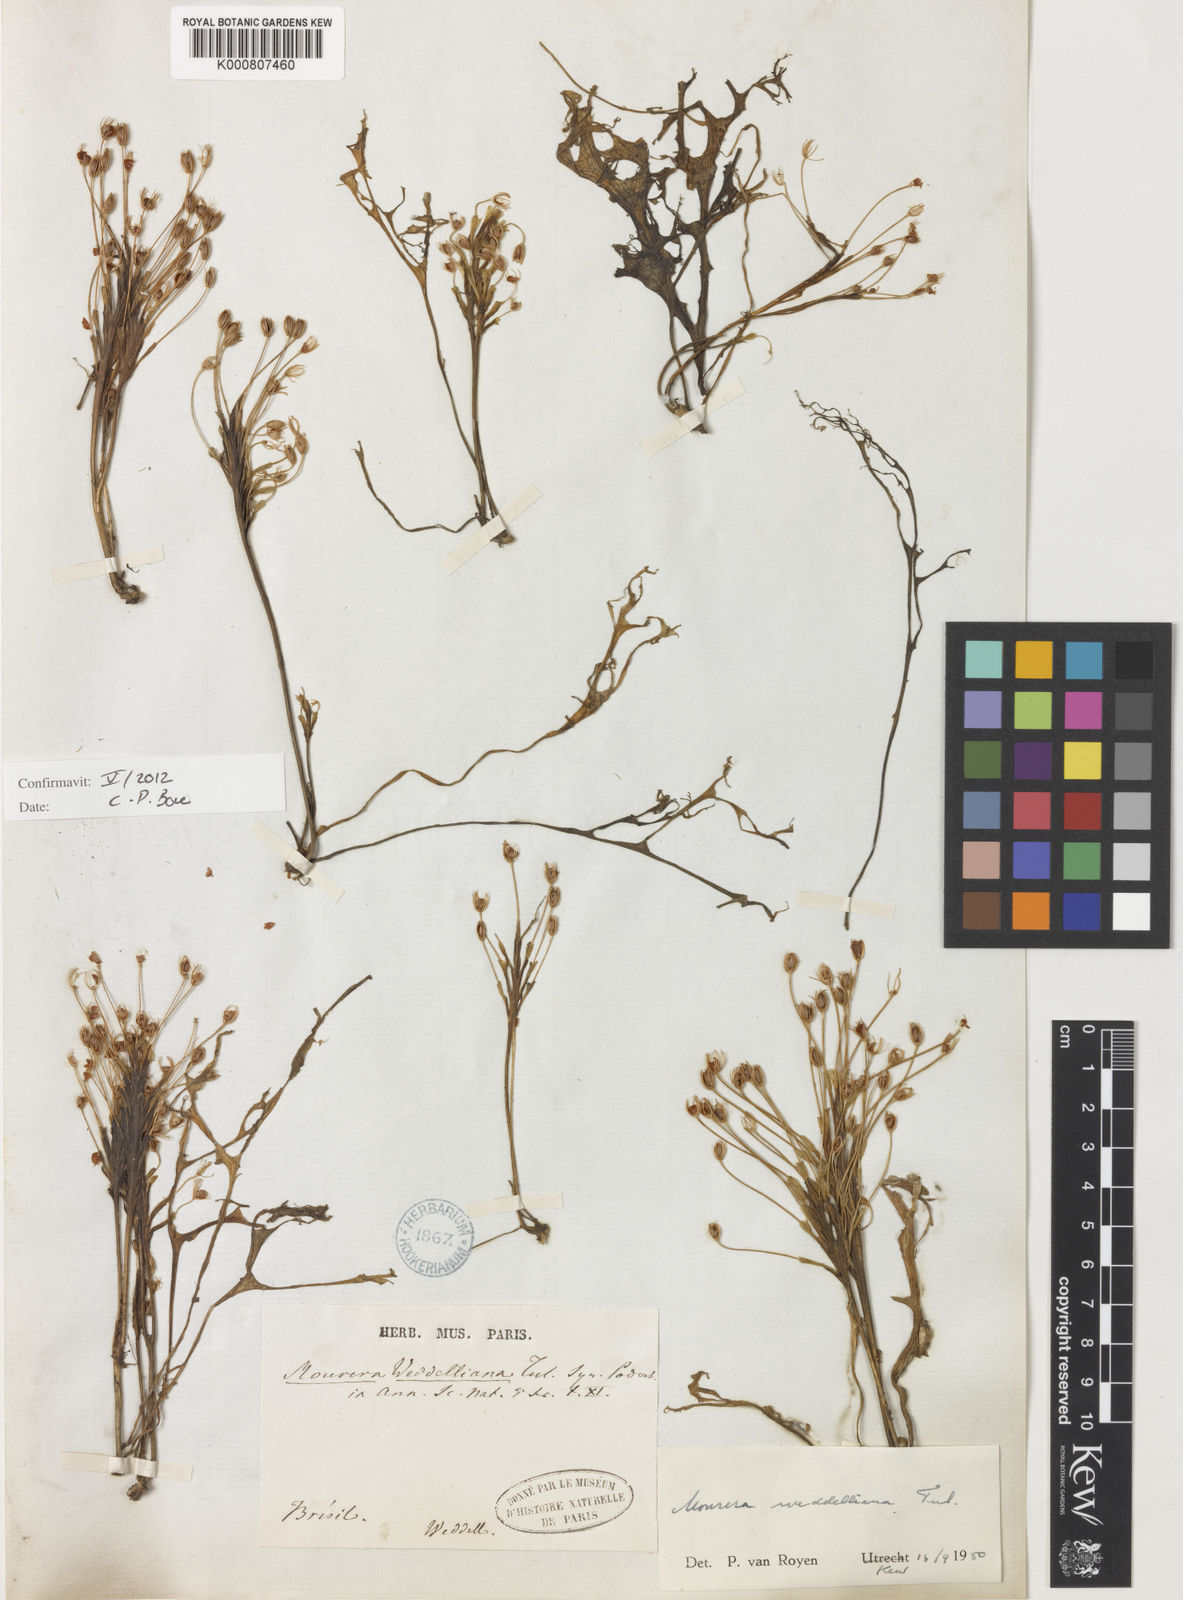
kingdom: Plantae
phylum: Tracheophyta
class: Magnoliopsida
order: Malpighiales
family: Podostemaceae
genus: Mourera
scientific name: Mourera weddelliana
